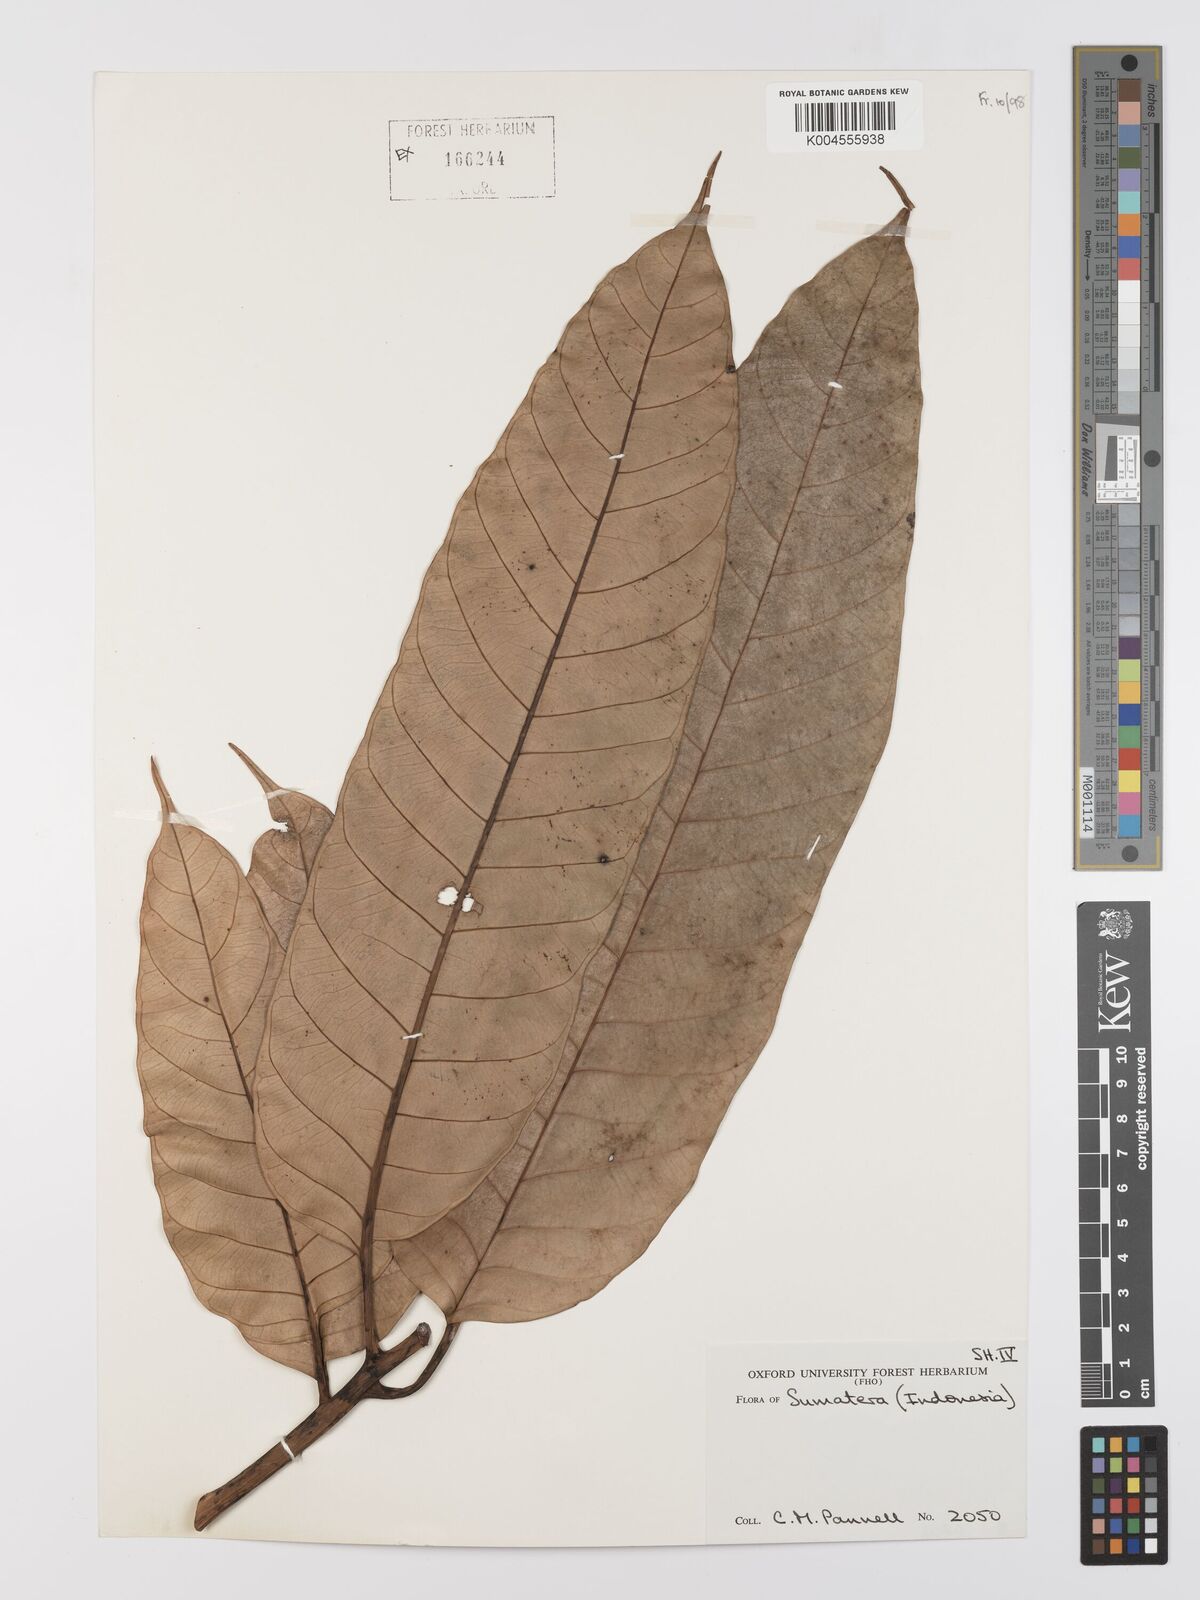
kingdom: Plantae
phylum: Tracheophyta
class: Magnoliopsida
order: Rosales
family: Moraceae
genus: Artocarpus
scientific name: Artocarpus anisophyllus
